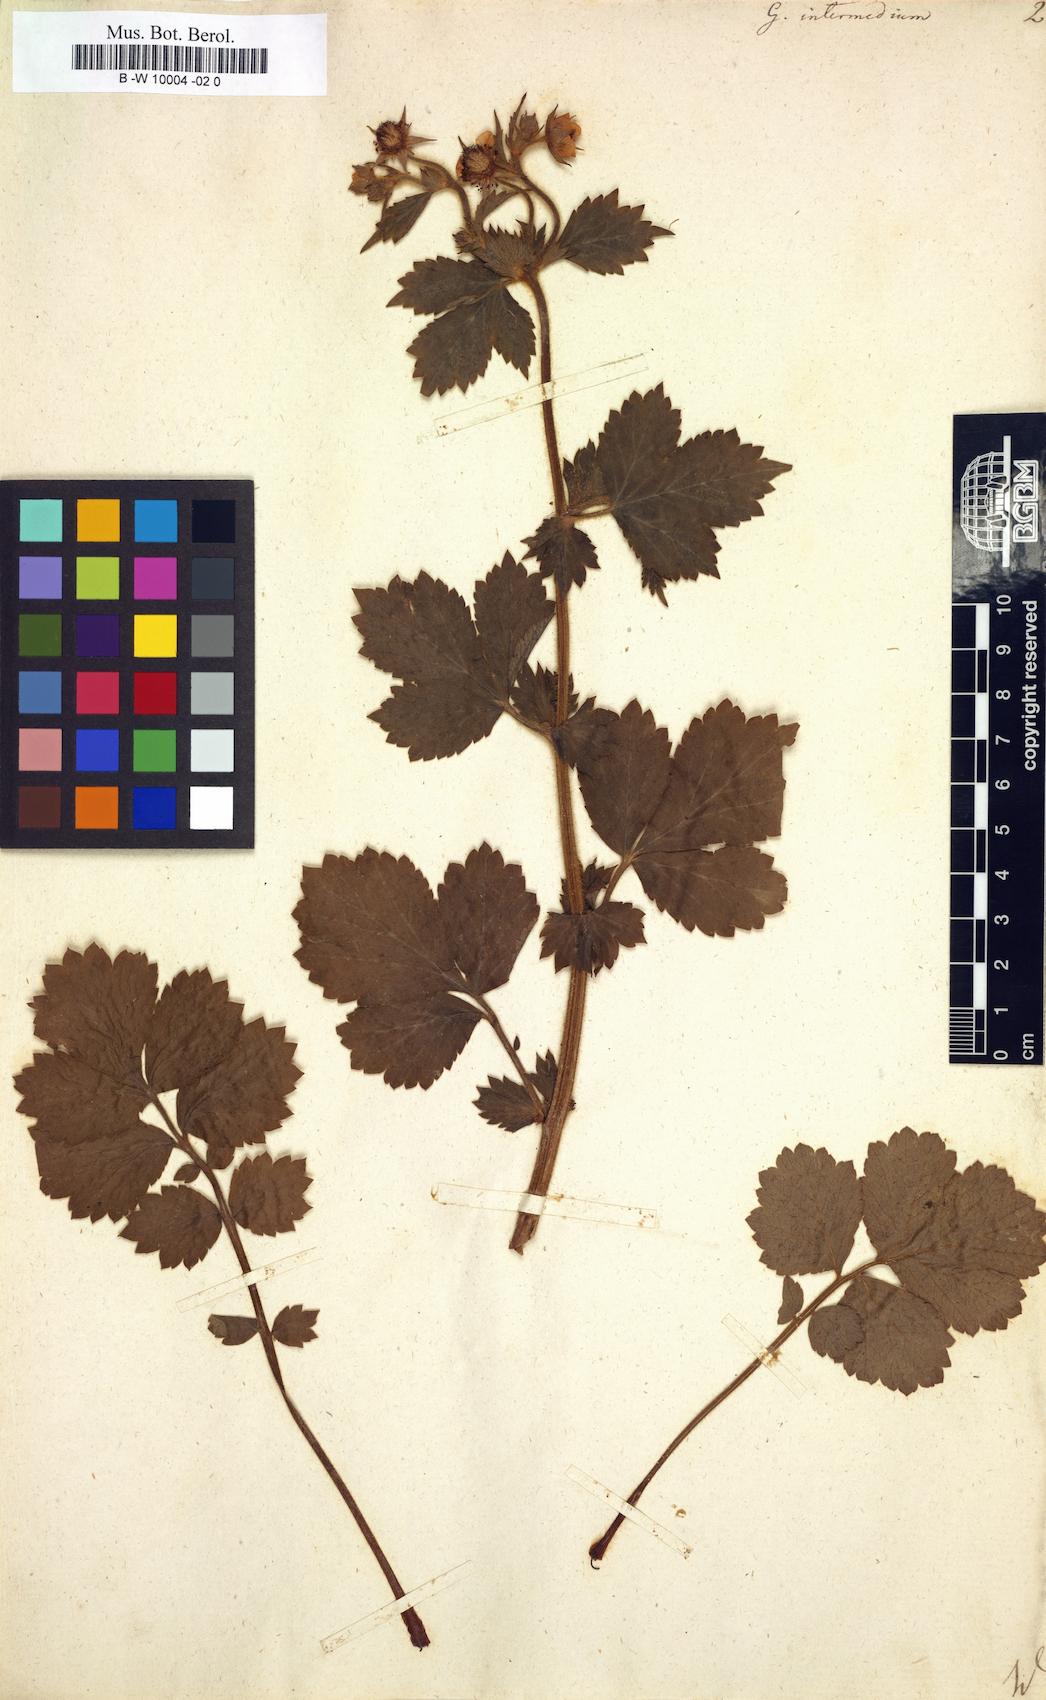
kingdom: Plantae
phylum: Tracheophyta
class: Magnoliopsida
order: Rosales
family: Rosaceae
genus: Geum
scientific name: Geum urbanum
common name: Wood avens
